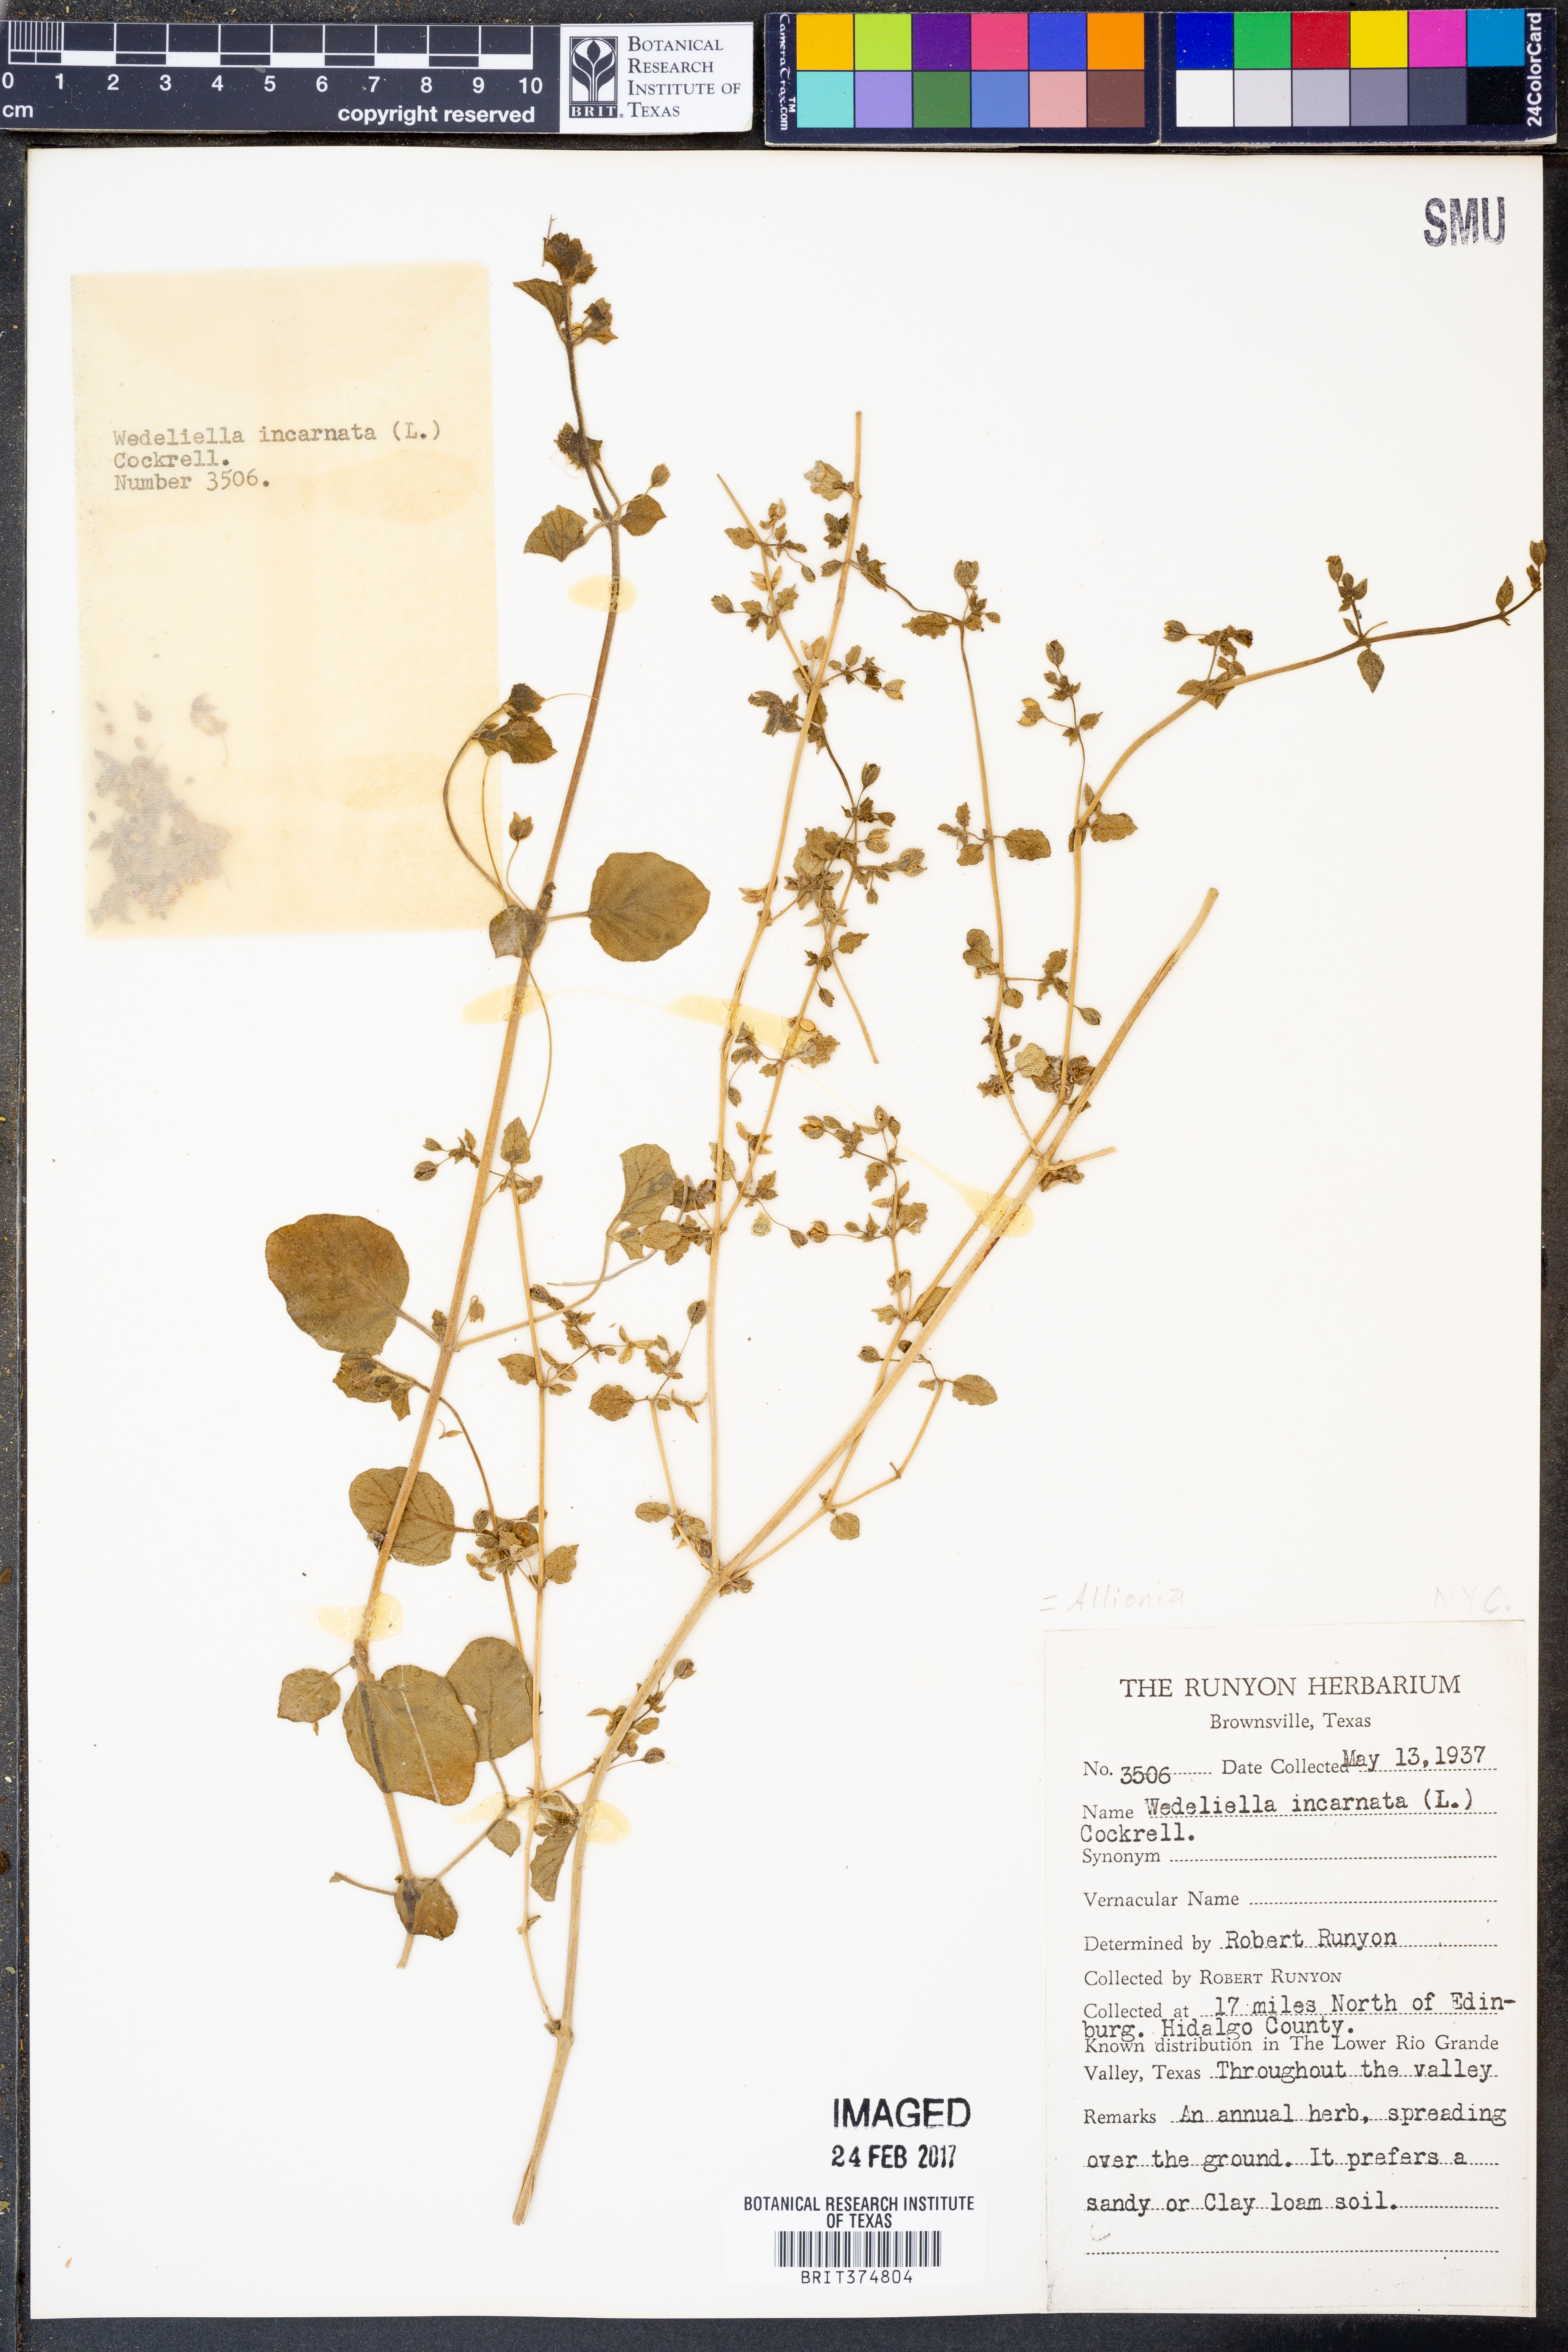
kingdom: Plantae
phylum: Tracheophyta
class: Magnoliopsida
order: Caryophyllales
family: Nyctaginaceae
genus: Allionia
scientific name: Allionia incarnata
